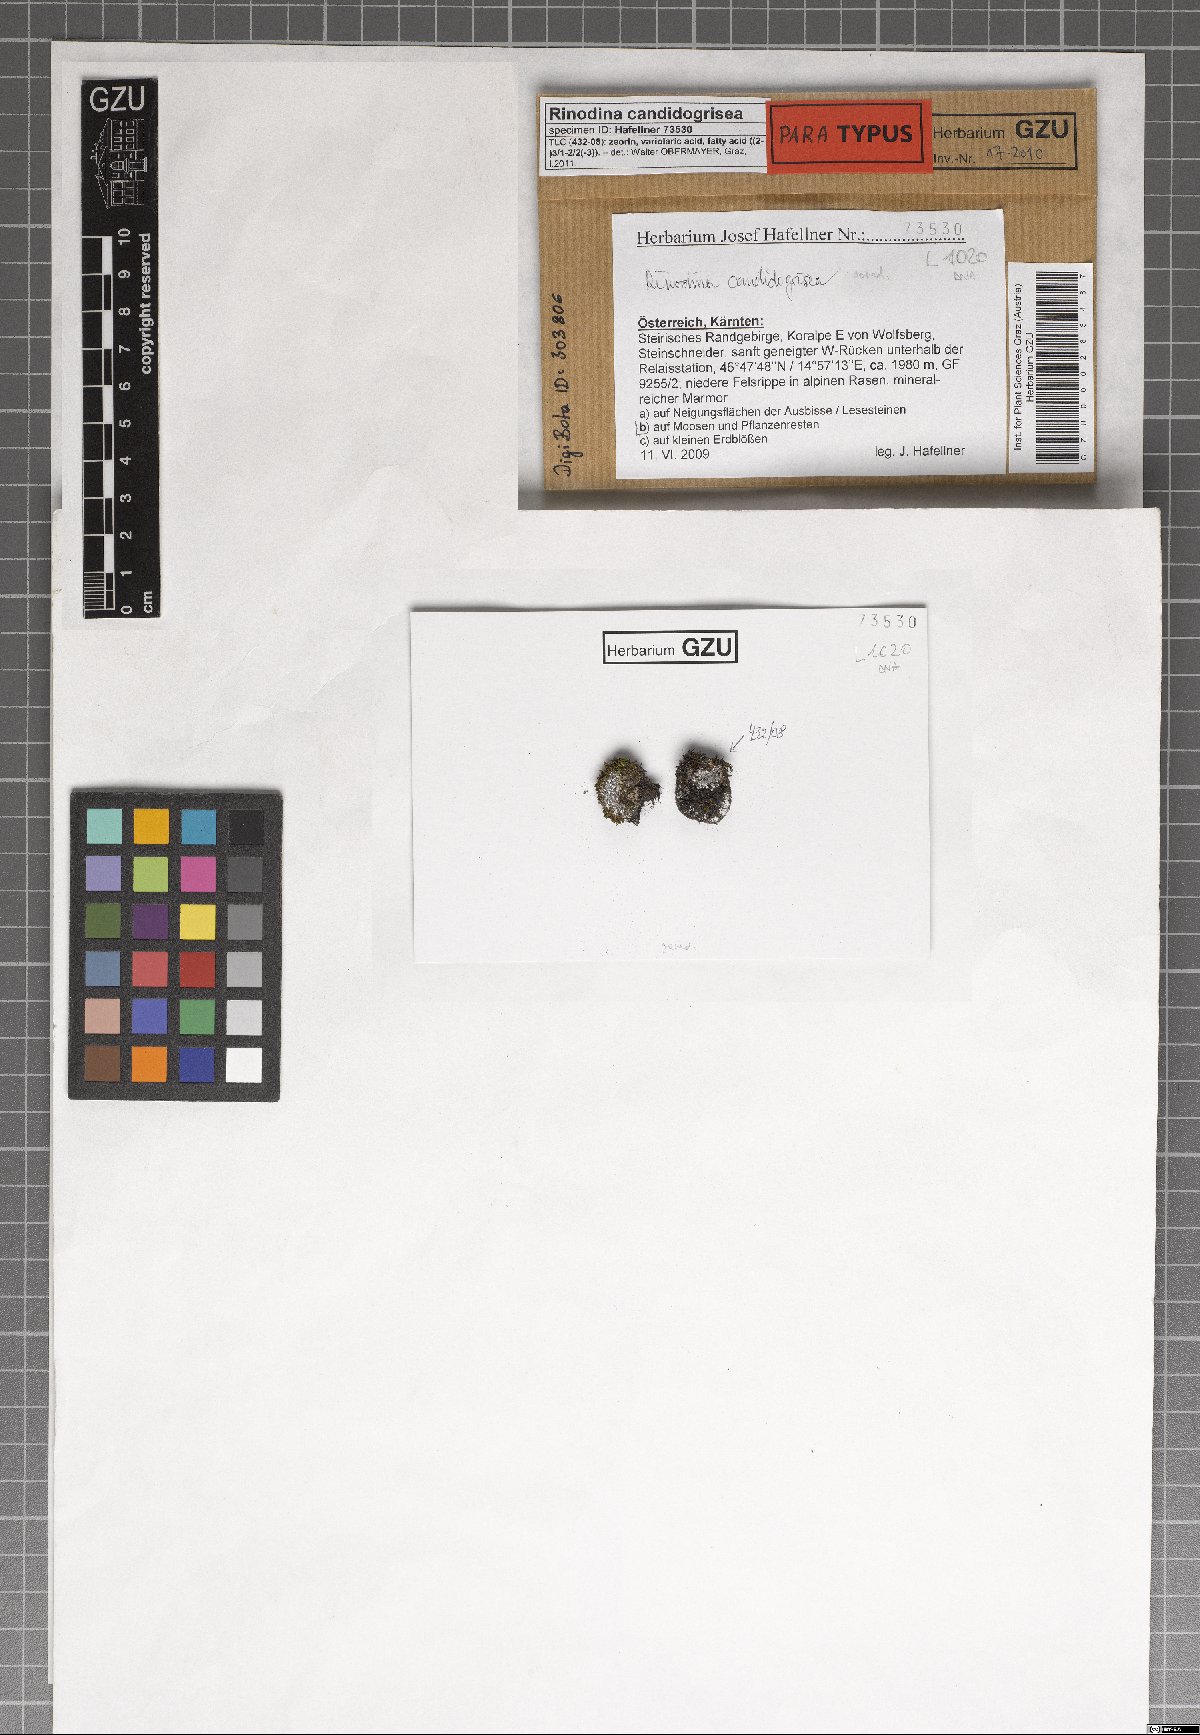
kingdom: Fungi
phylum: Ascomycota
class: Lecanoromycetes
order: Caliciales
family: Physciaceae
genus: Kudratovia
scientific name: Kudratovia candidogrisea
